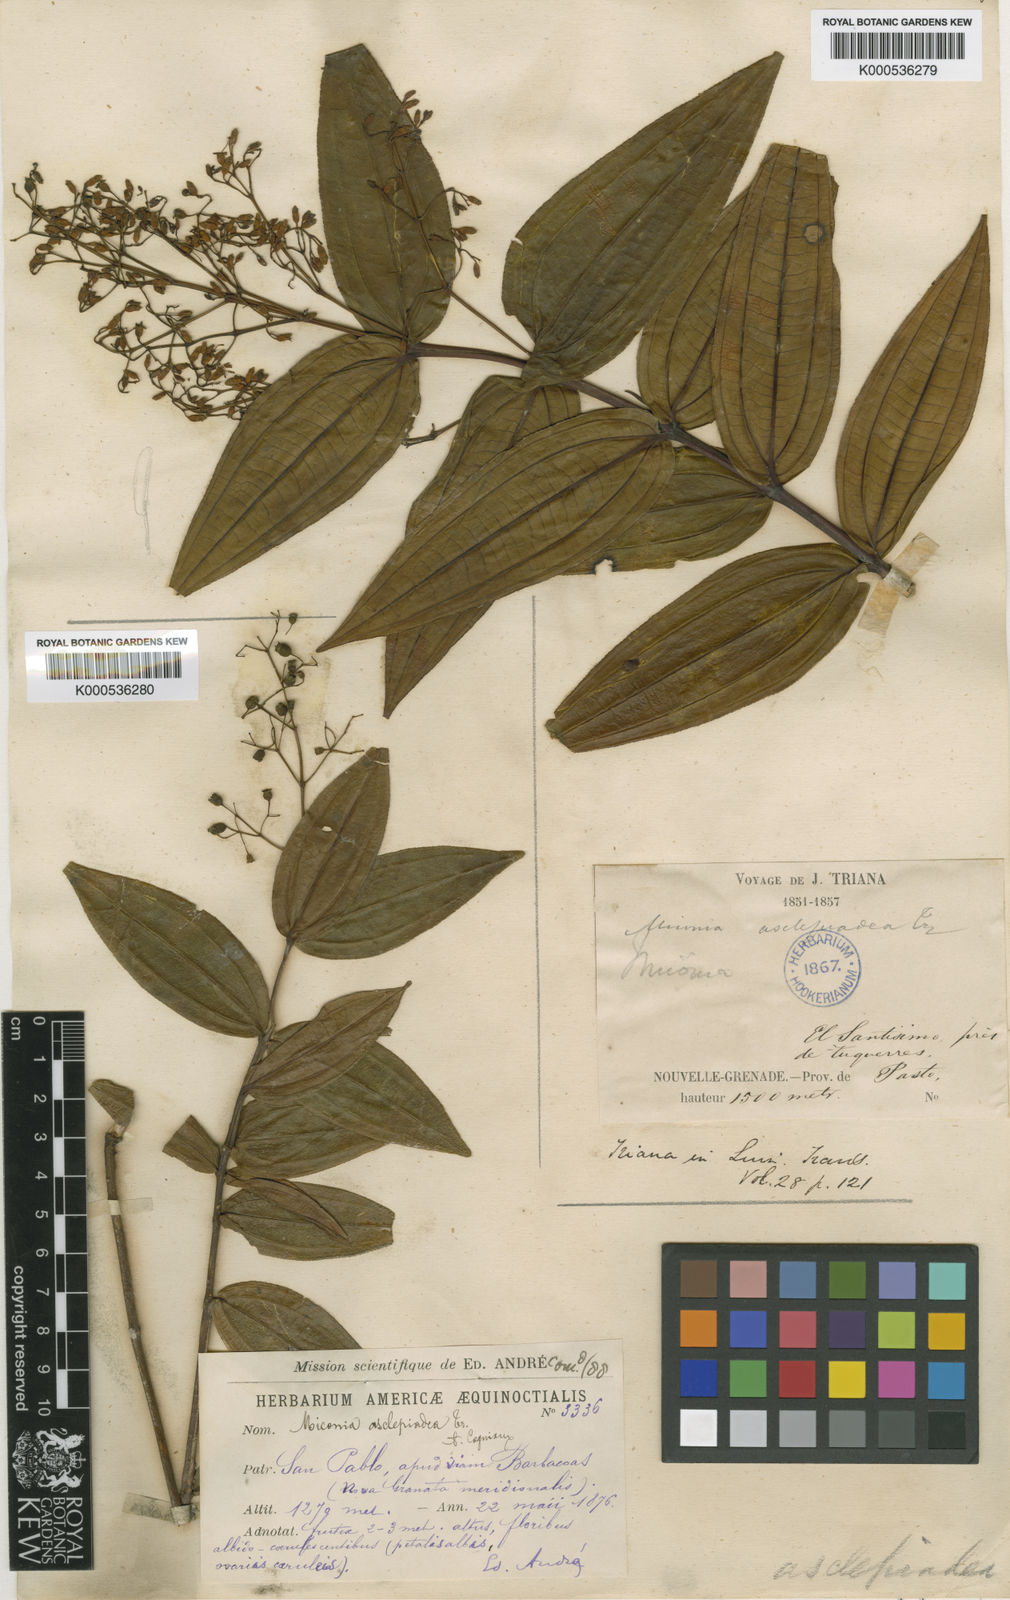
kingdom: Plantae
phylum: Tracheophyta
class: Magnoliopsida
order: Myrtales
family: Melastomataceae
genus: Miconia
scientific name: Miconia asclepiadea
